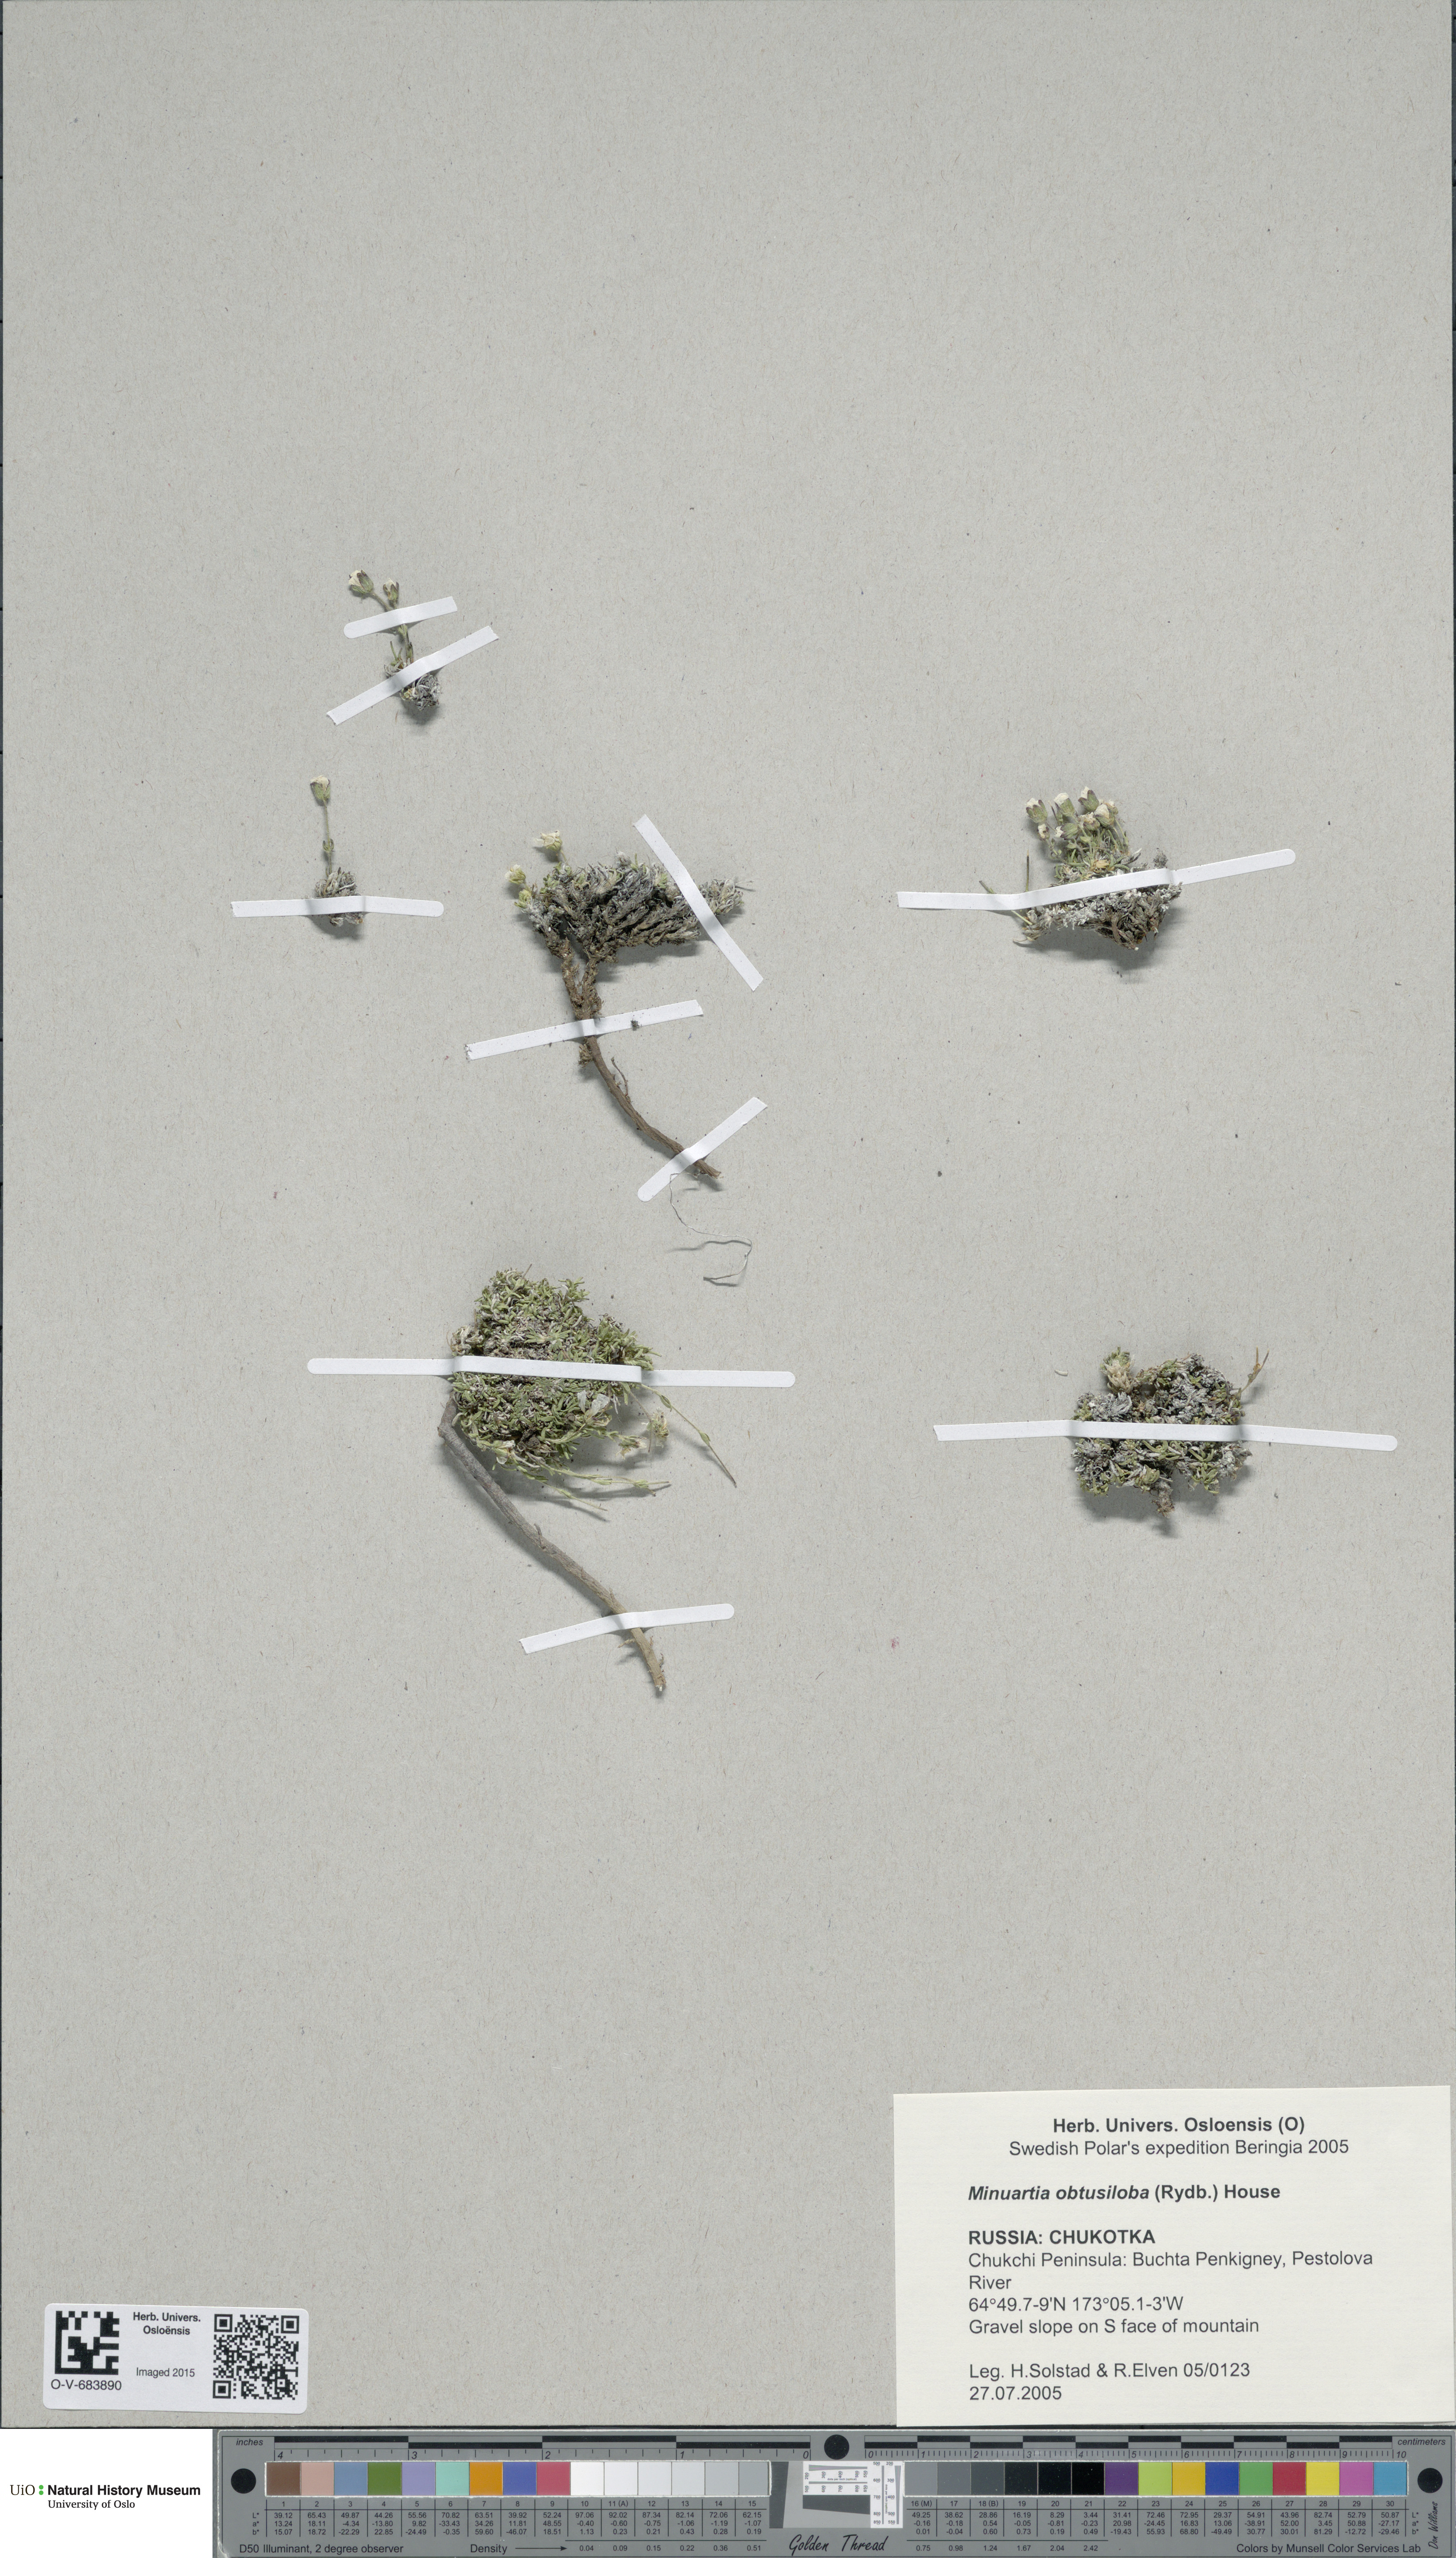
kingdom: Plantae
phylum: Tracheophyta
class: Magnoliopsida
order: Caryophyllales
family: Caryophyllaceae
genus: Cherleria
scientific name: Cherleria obtusiloba
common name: Alpine stitchwort
